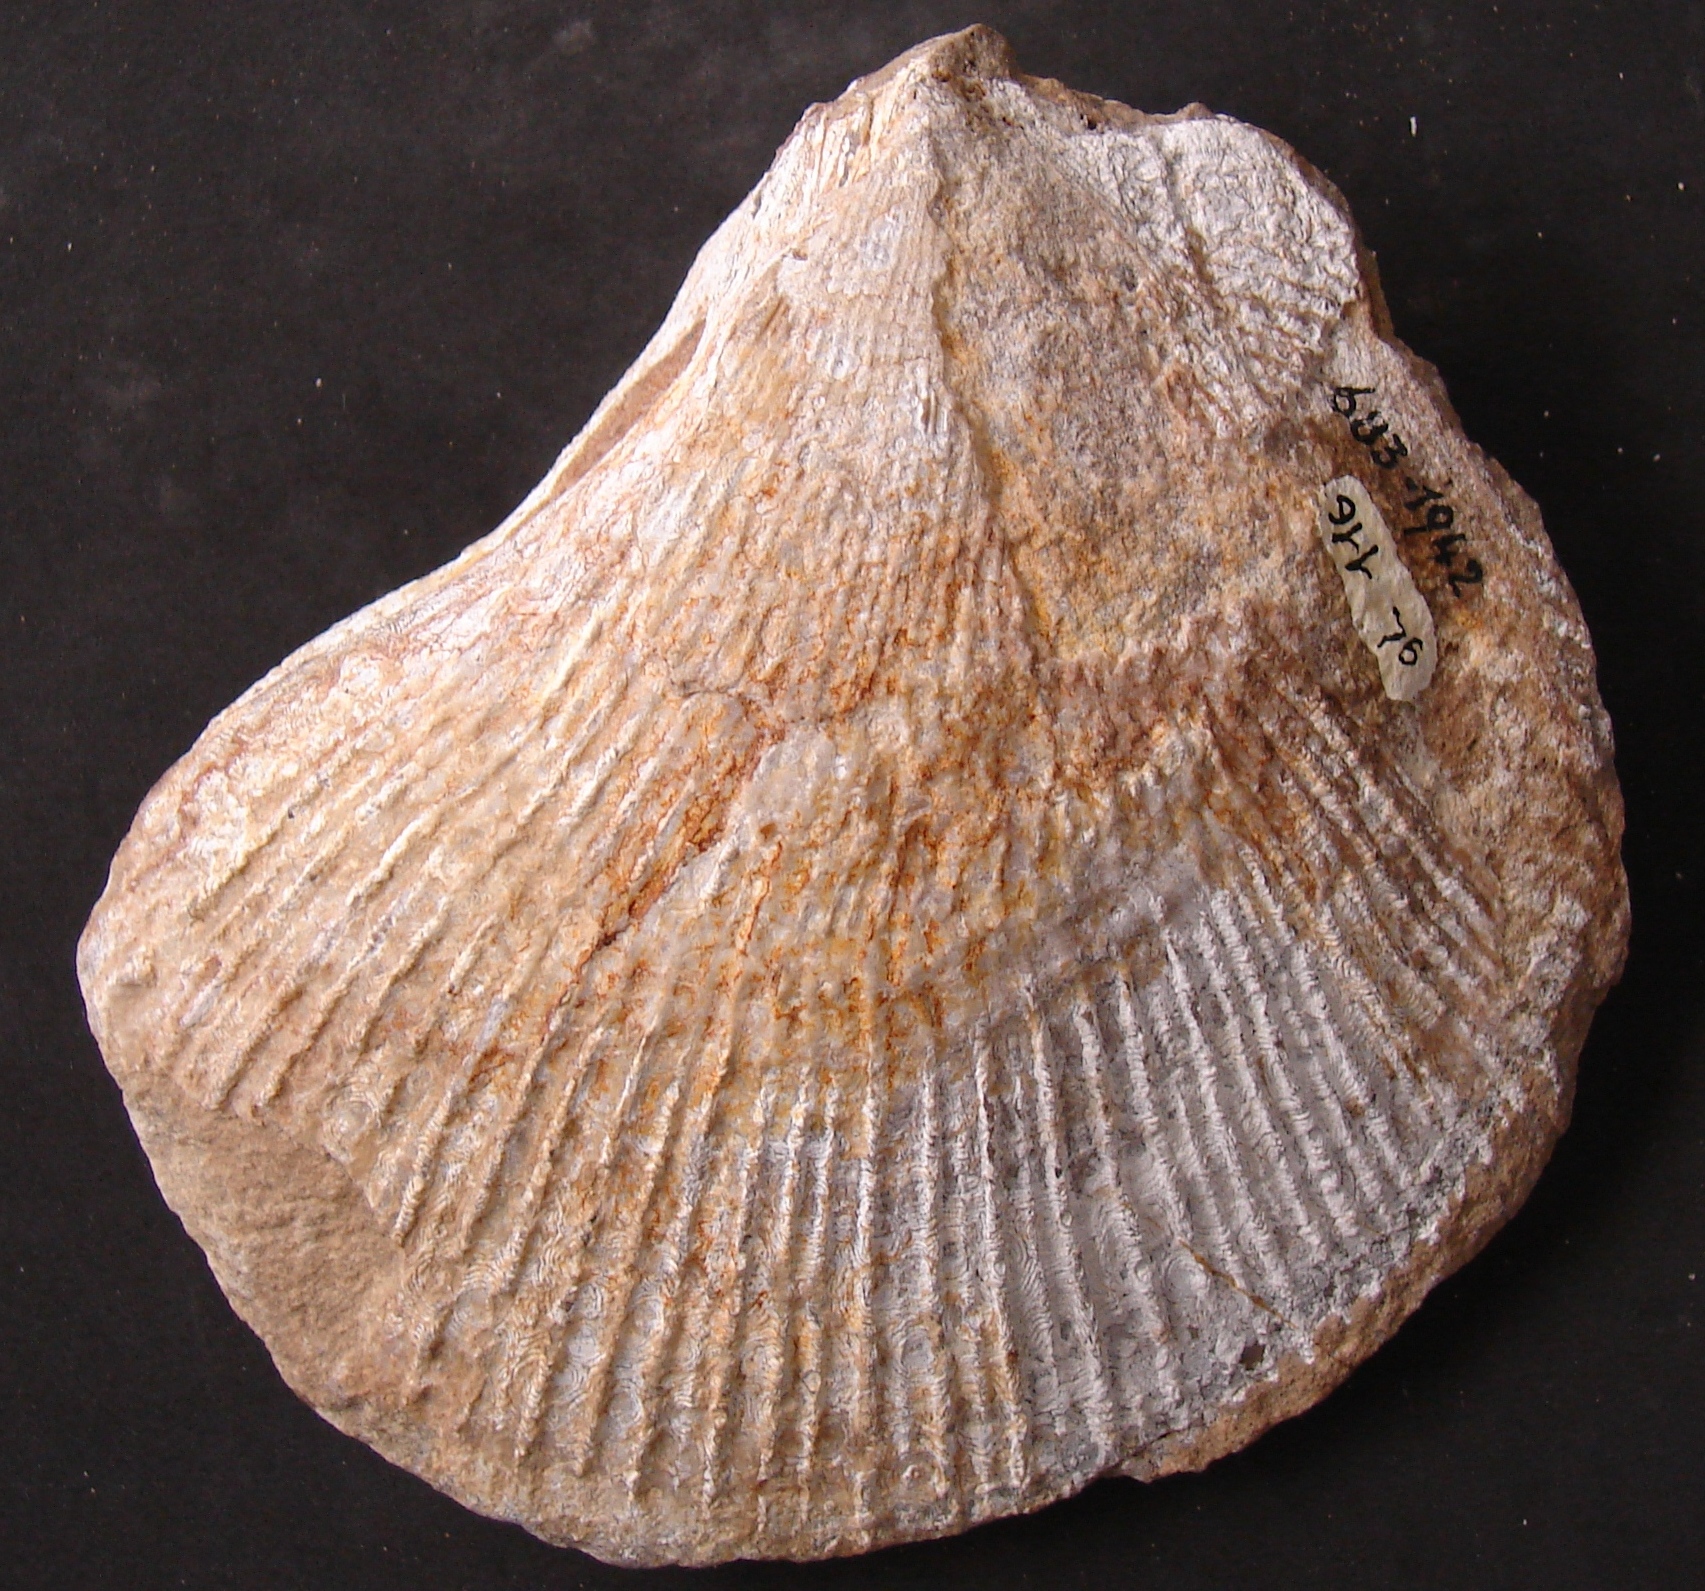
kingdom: Animalia
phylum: Mollusca
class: Bivalvia
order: Limida
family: Limidae
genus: Plagiostoma
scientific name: Plagiostoma hermanni
